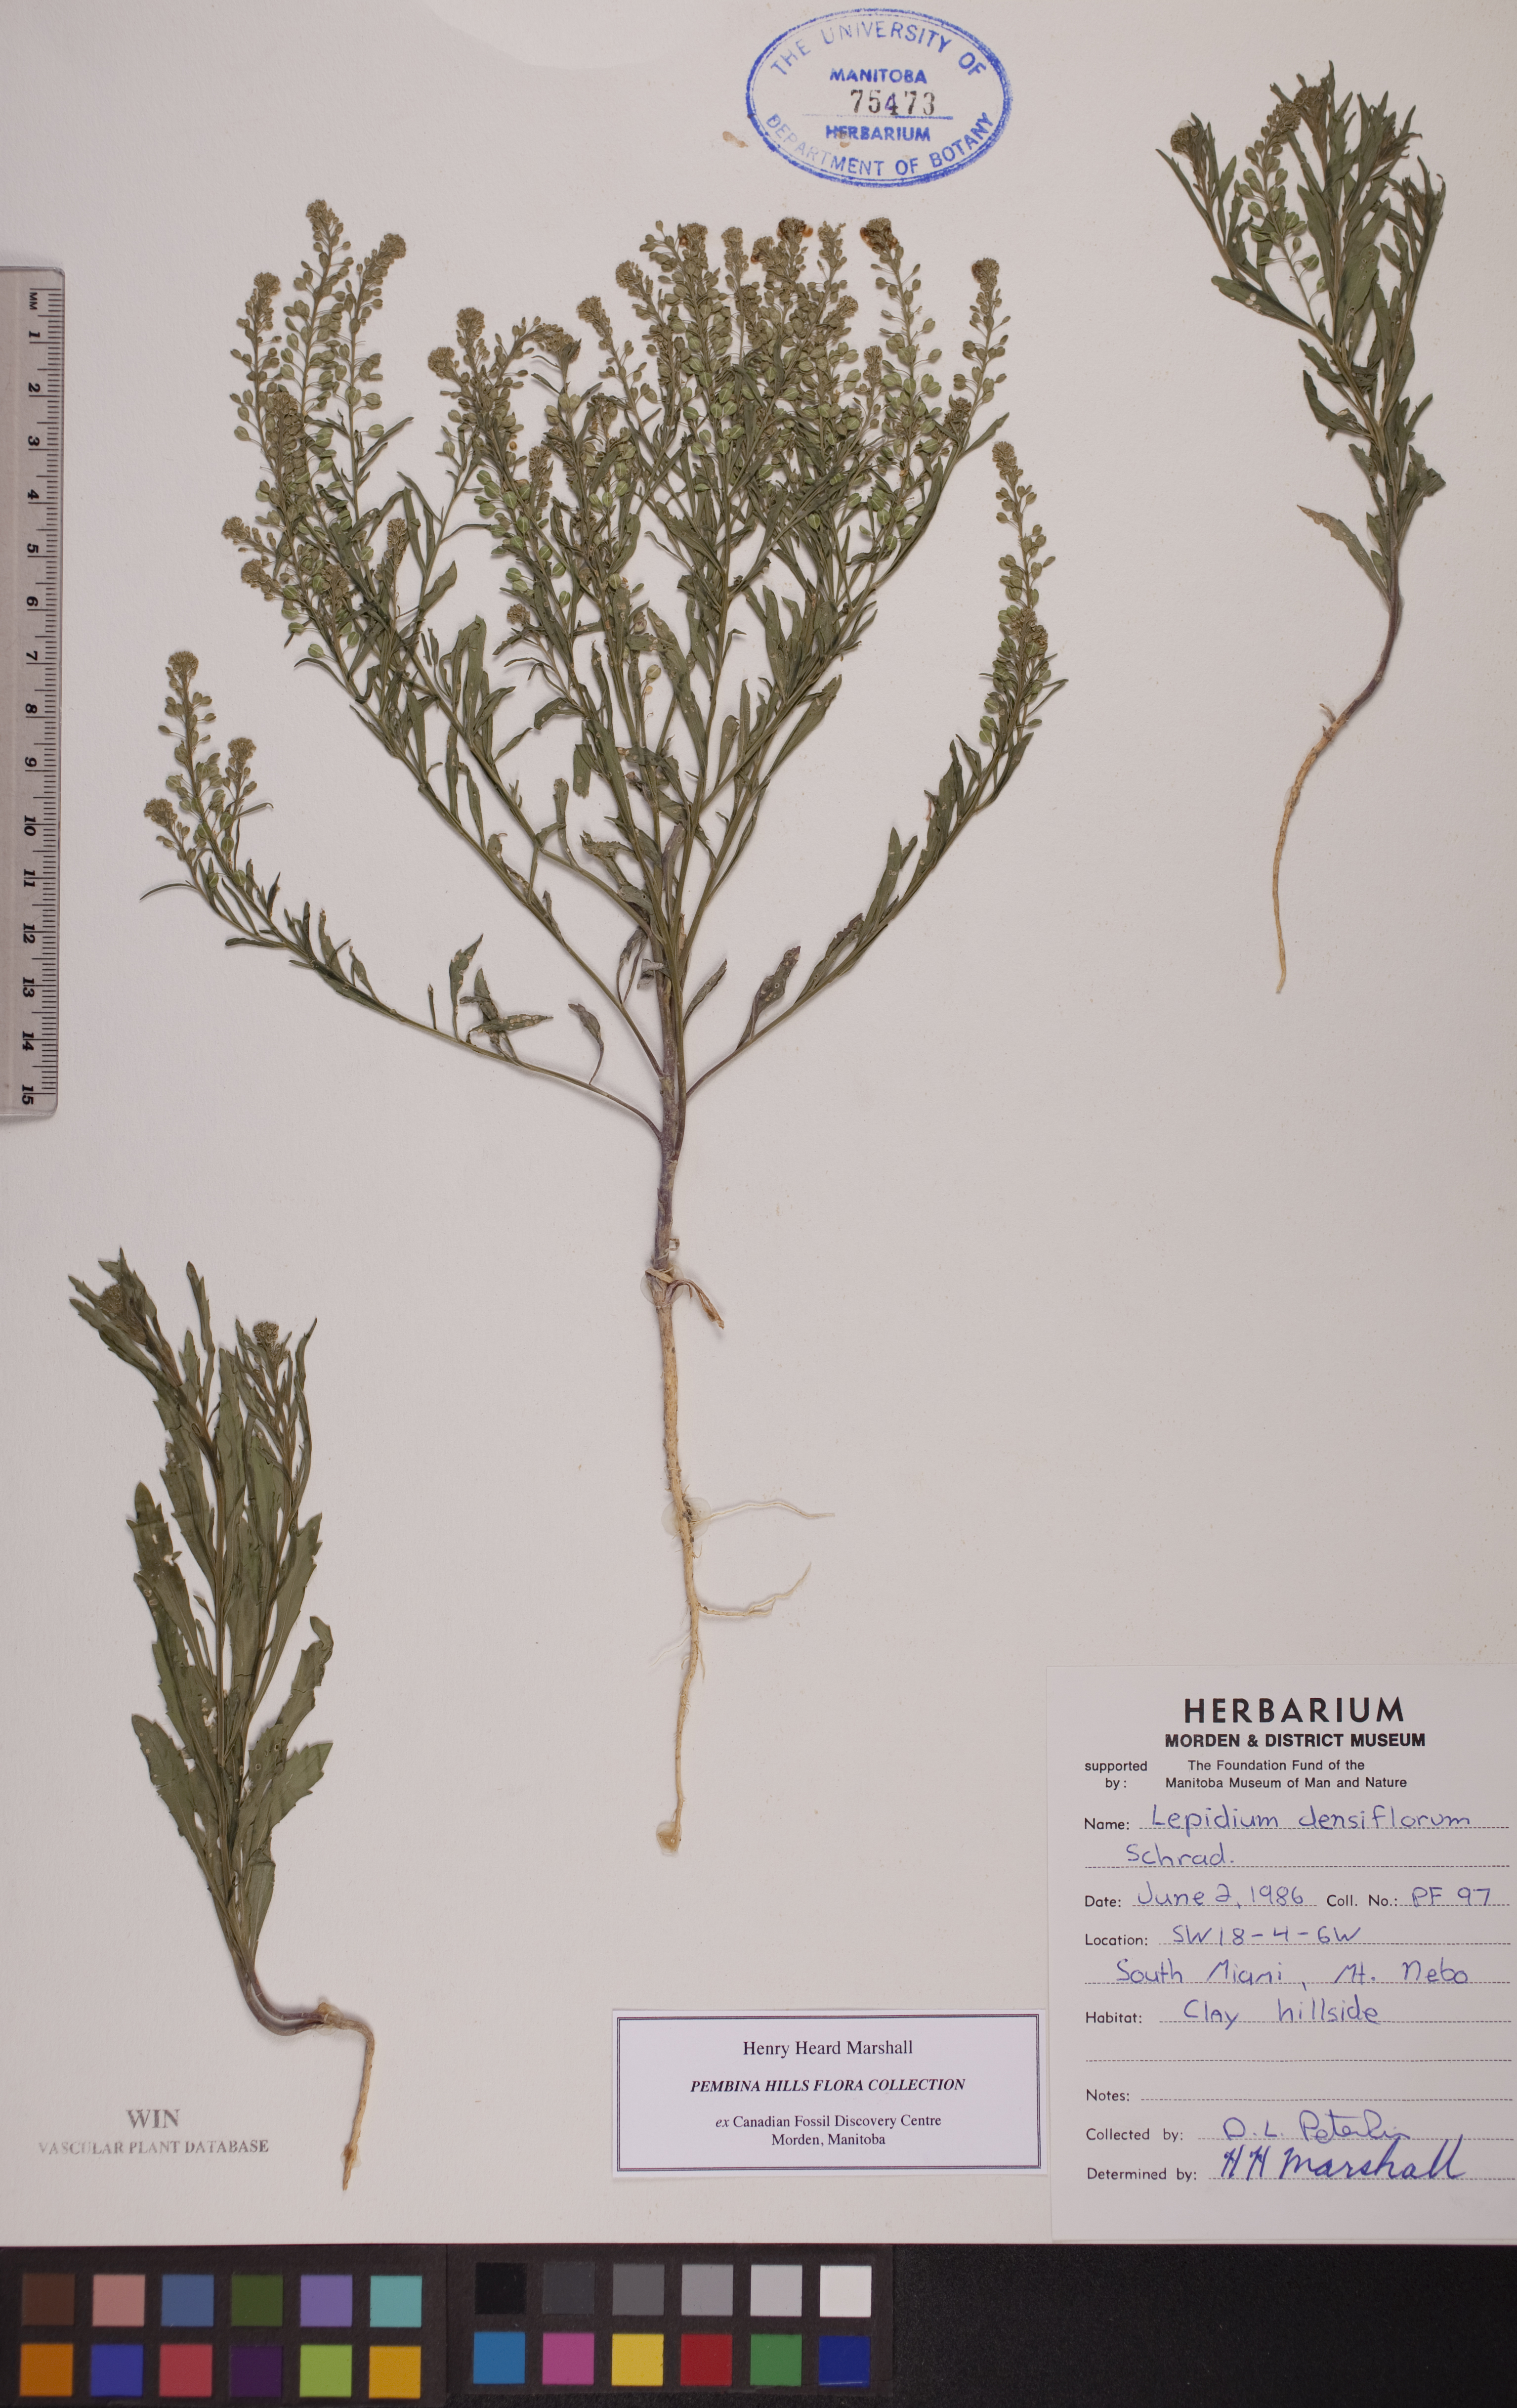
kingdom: Plantae
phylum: Tracheophyta
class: Magnoliopsida
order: Brassicales
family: Brassicaceae
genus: Lepidium
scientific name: Lepidium densiflorum
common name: Miner's pepperwort
